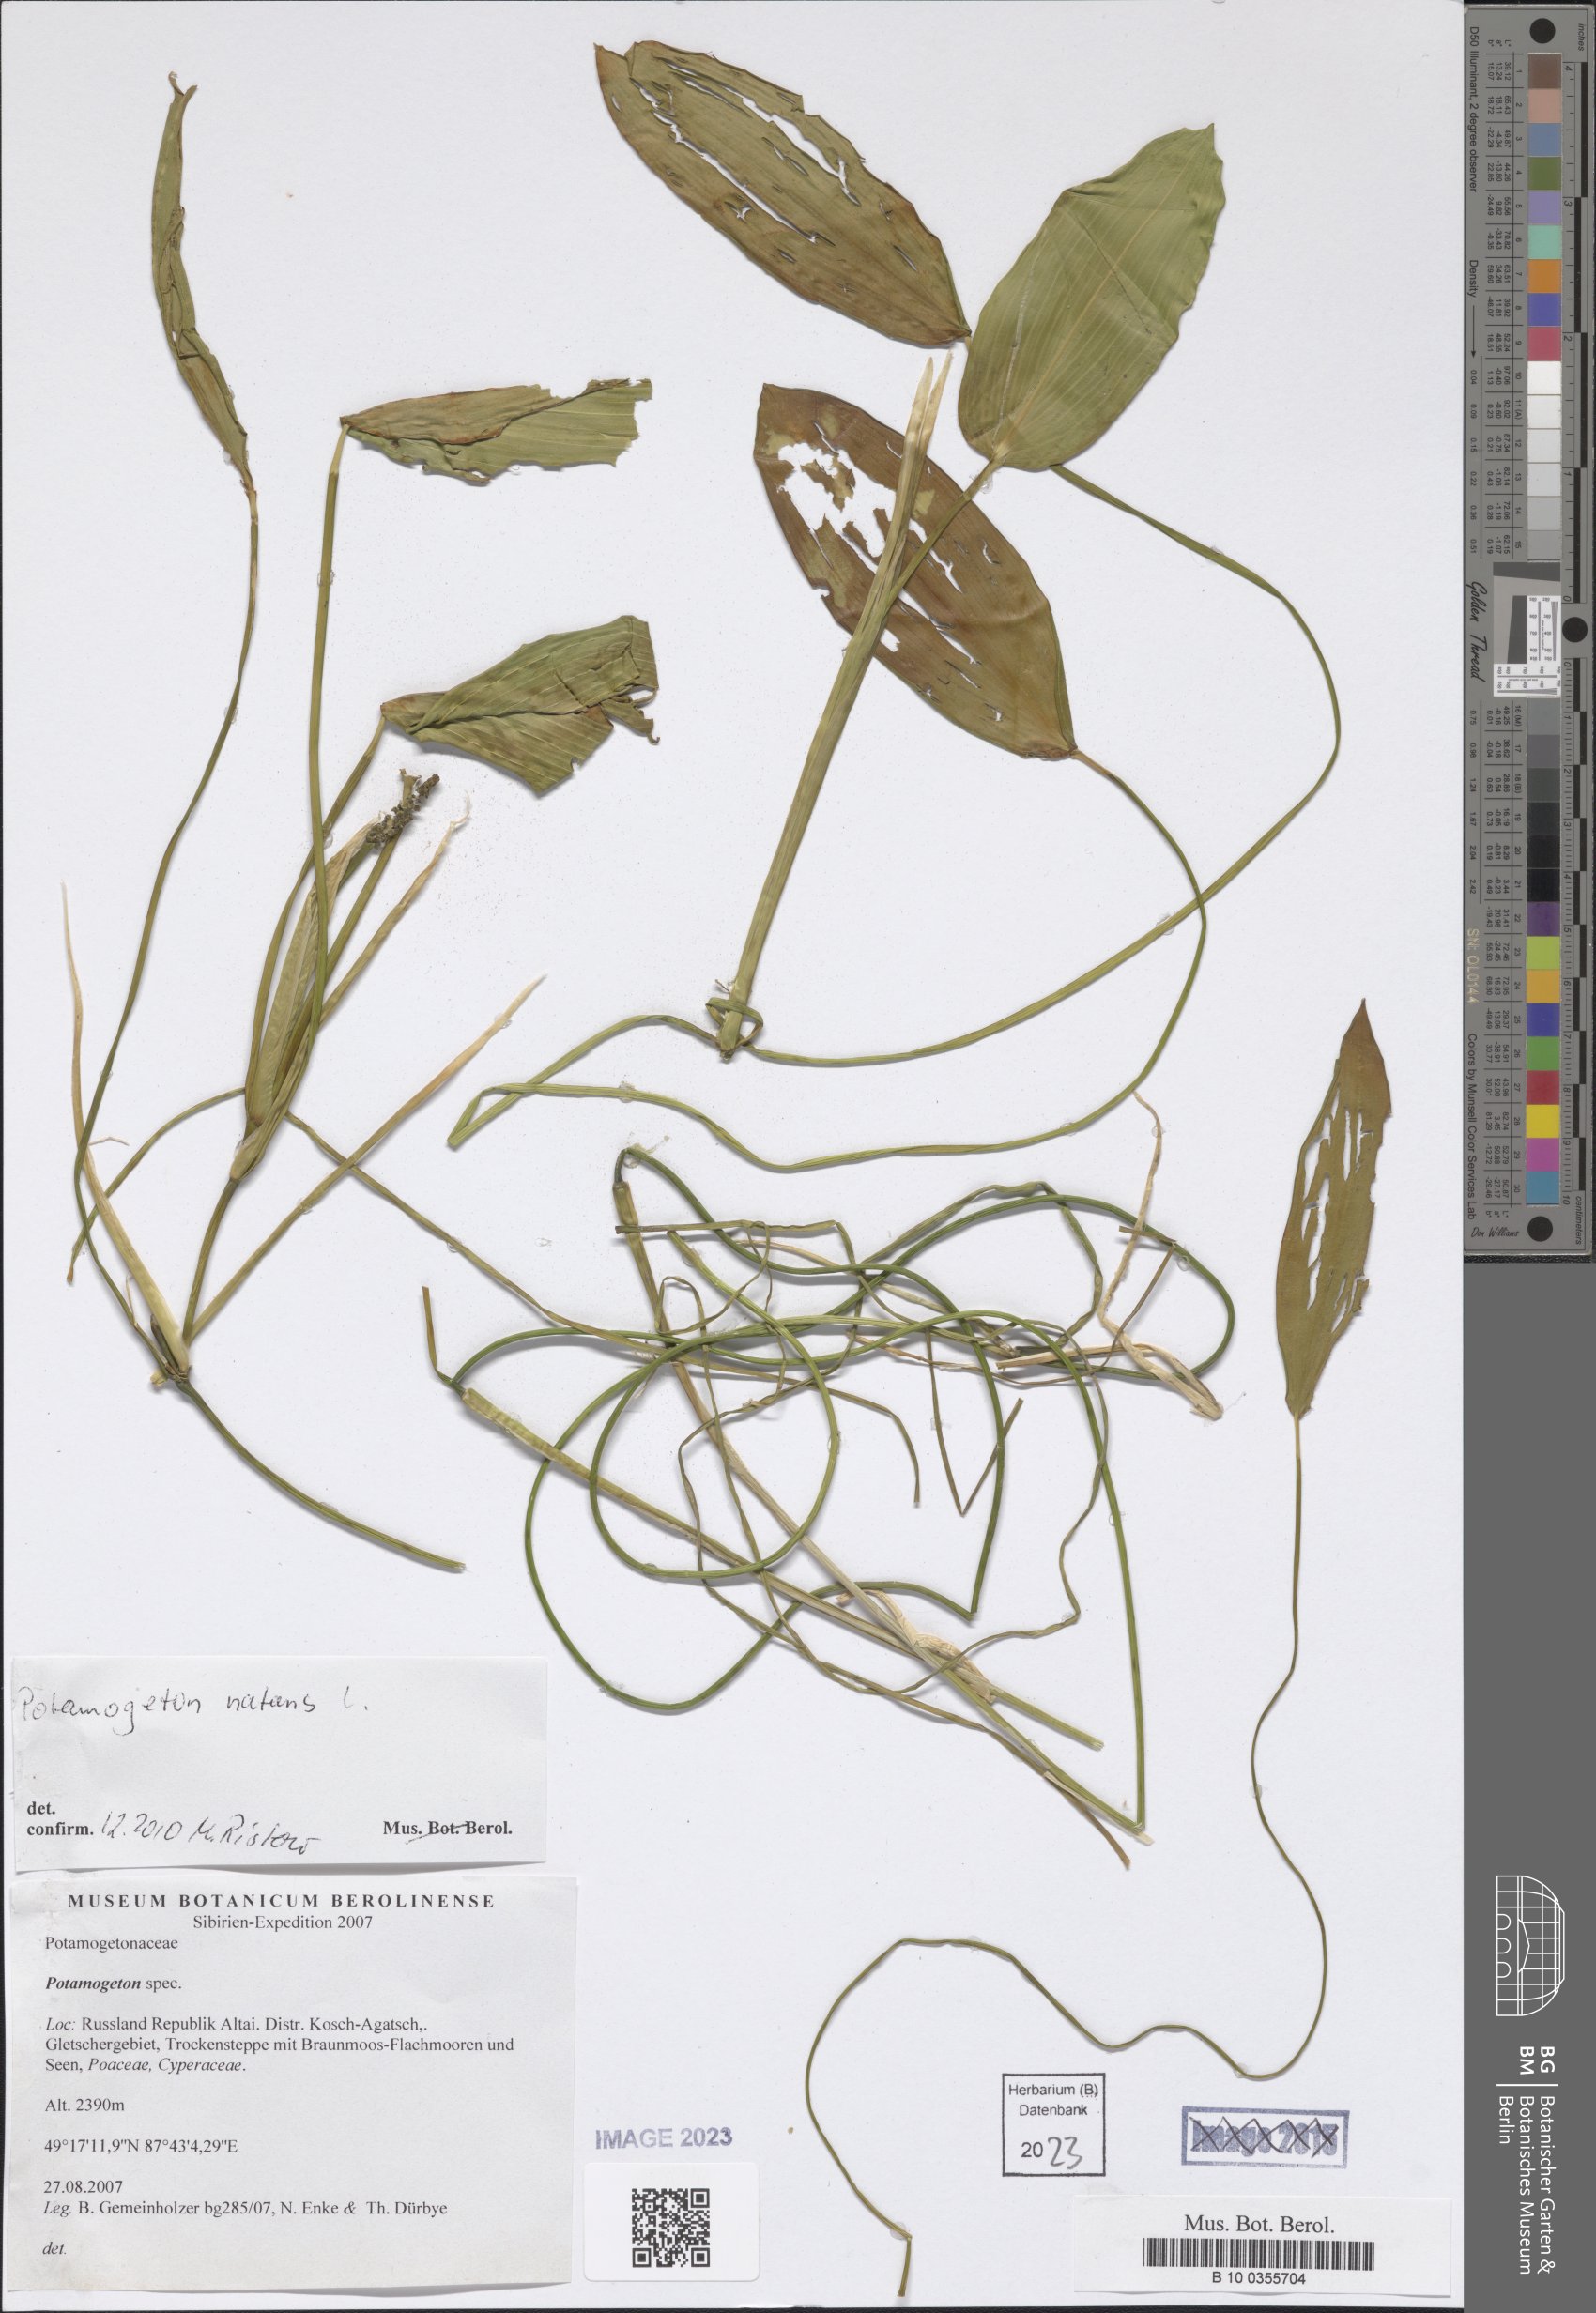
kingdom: Plantae
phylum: Tracheophyta
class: Liliopsida
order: Alismatales
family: Potamogetonaceae
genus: Potamogeton
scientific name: Potamogeton natans
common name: Broad-leaved pondweed
